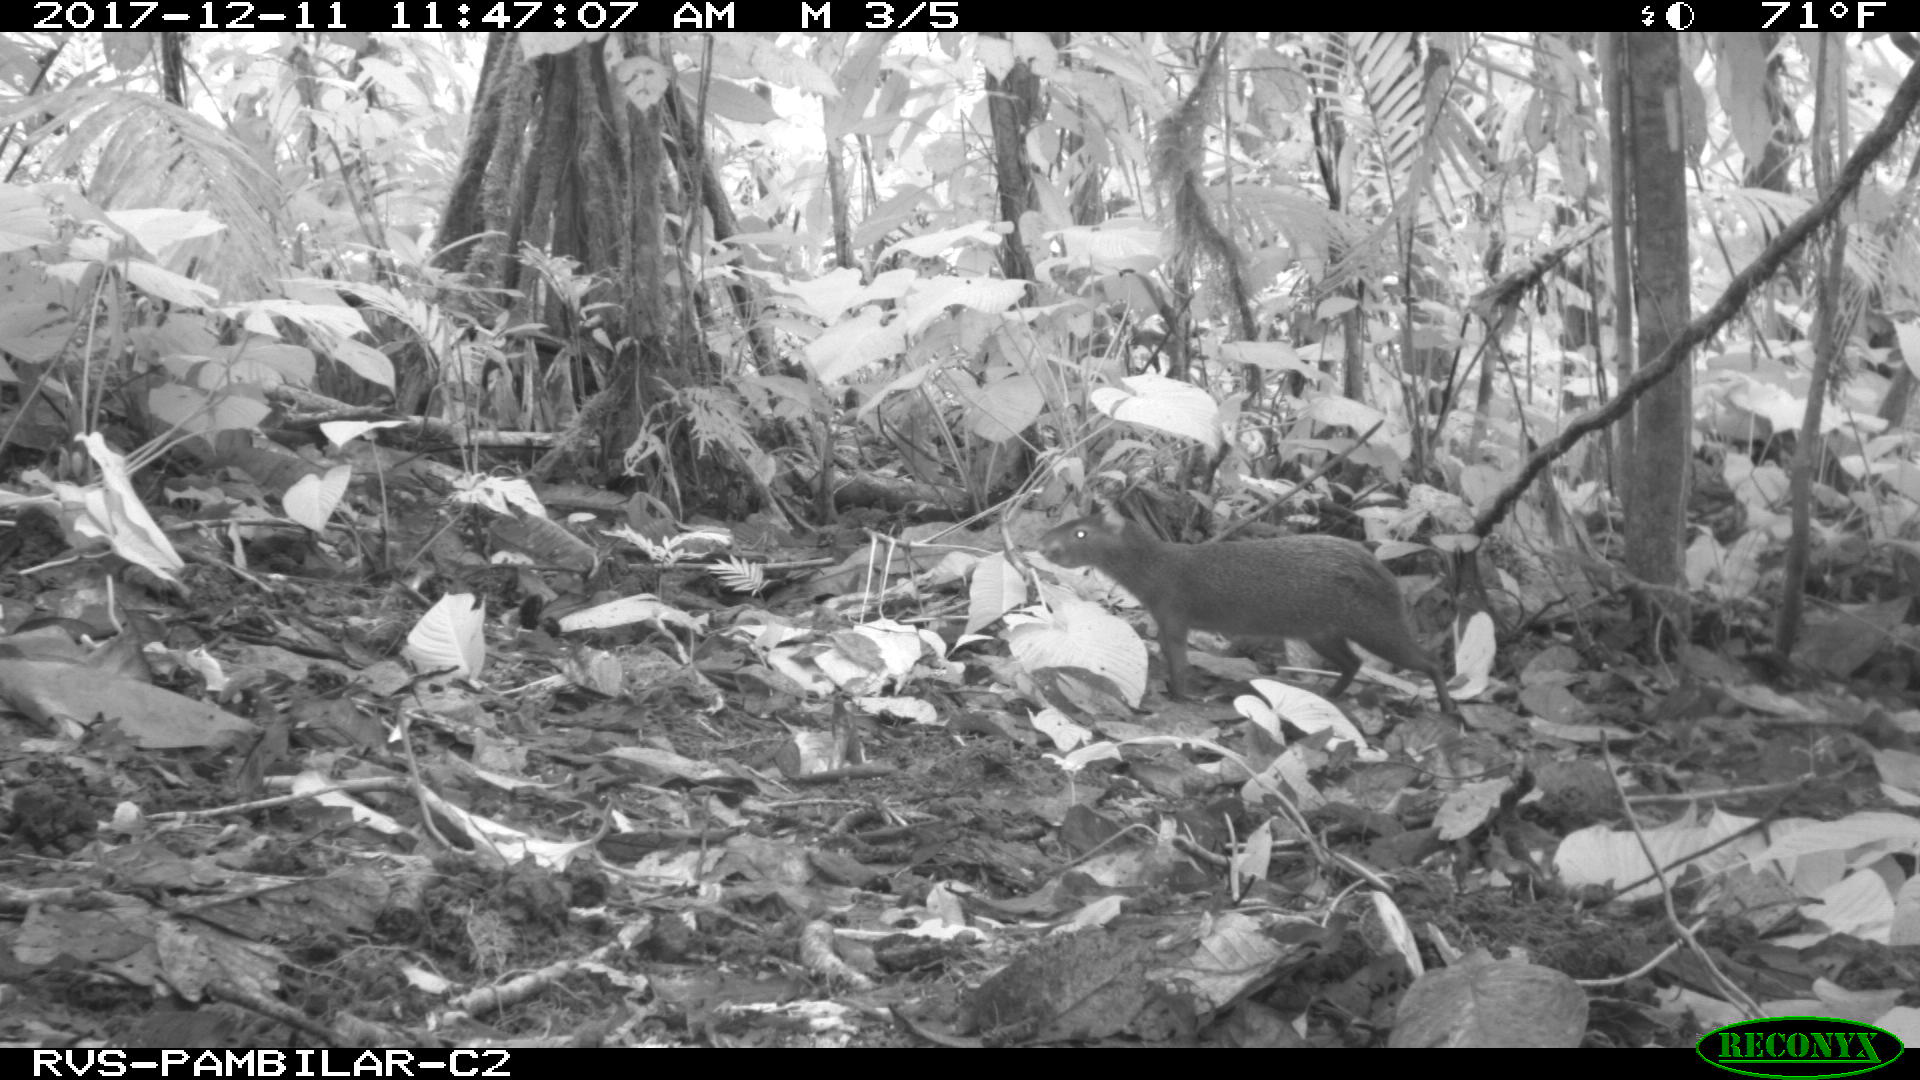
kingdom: Animalia
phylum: Chordata
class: Mammalia
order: Rodentia
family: Dasyproctidae
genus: Dasyprocta
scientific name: Dasyprocta punctata
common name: Central american agouti
